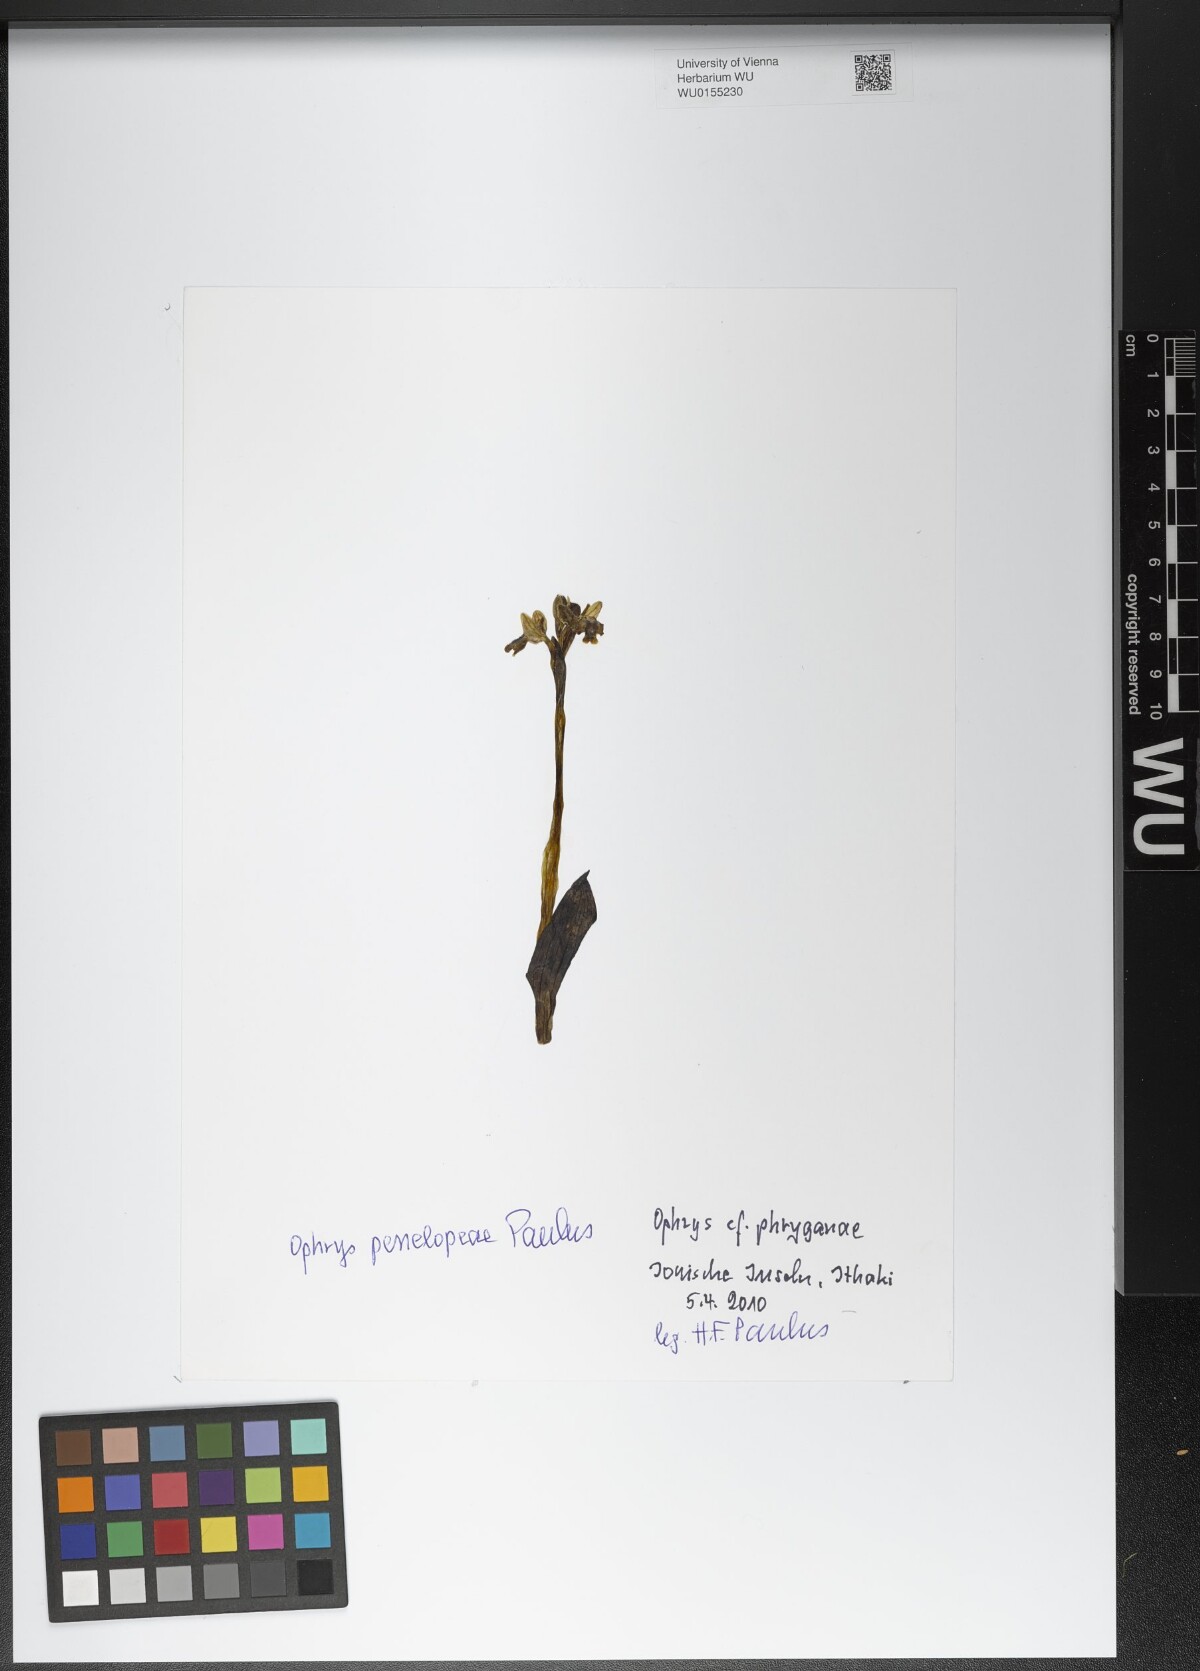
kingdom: Plantae
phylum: Tracheophyta
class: Liliopsida
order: Asparagales
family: Orchidaceae
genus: Ophrys
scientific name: Ophrys lutea
